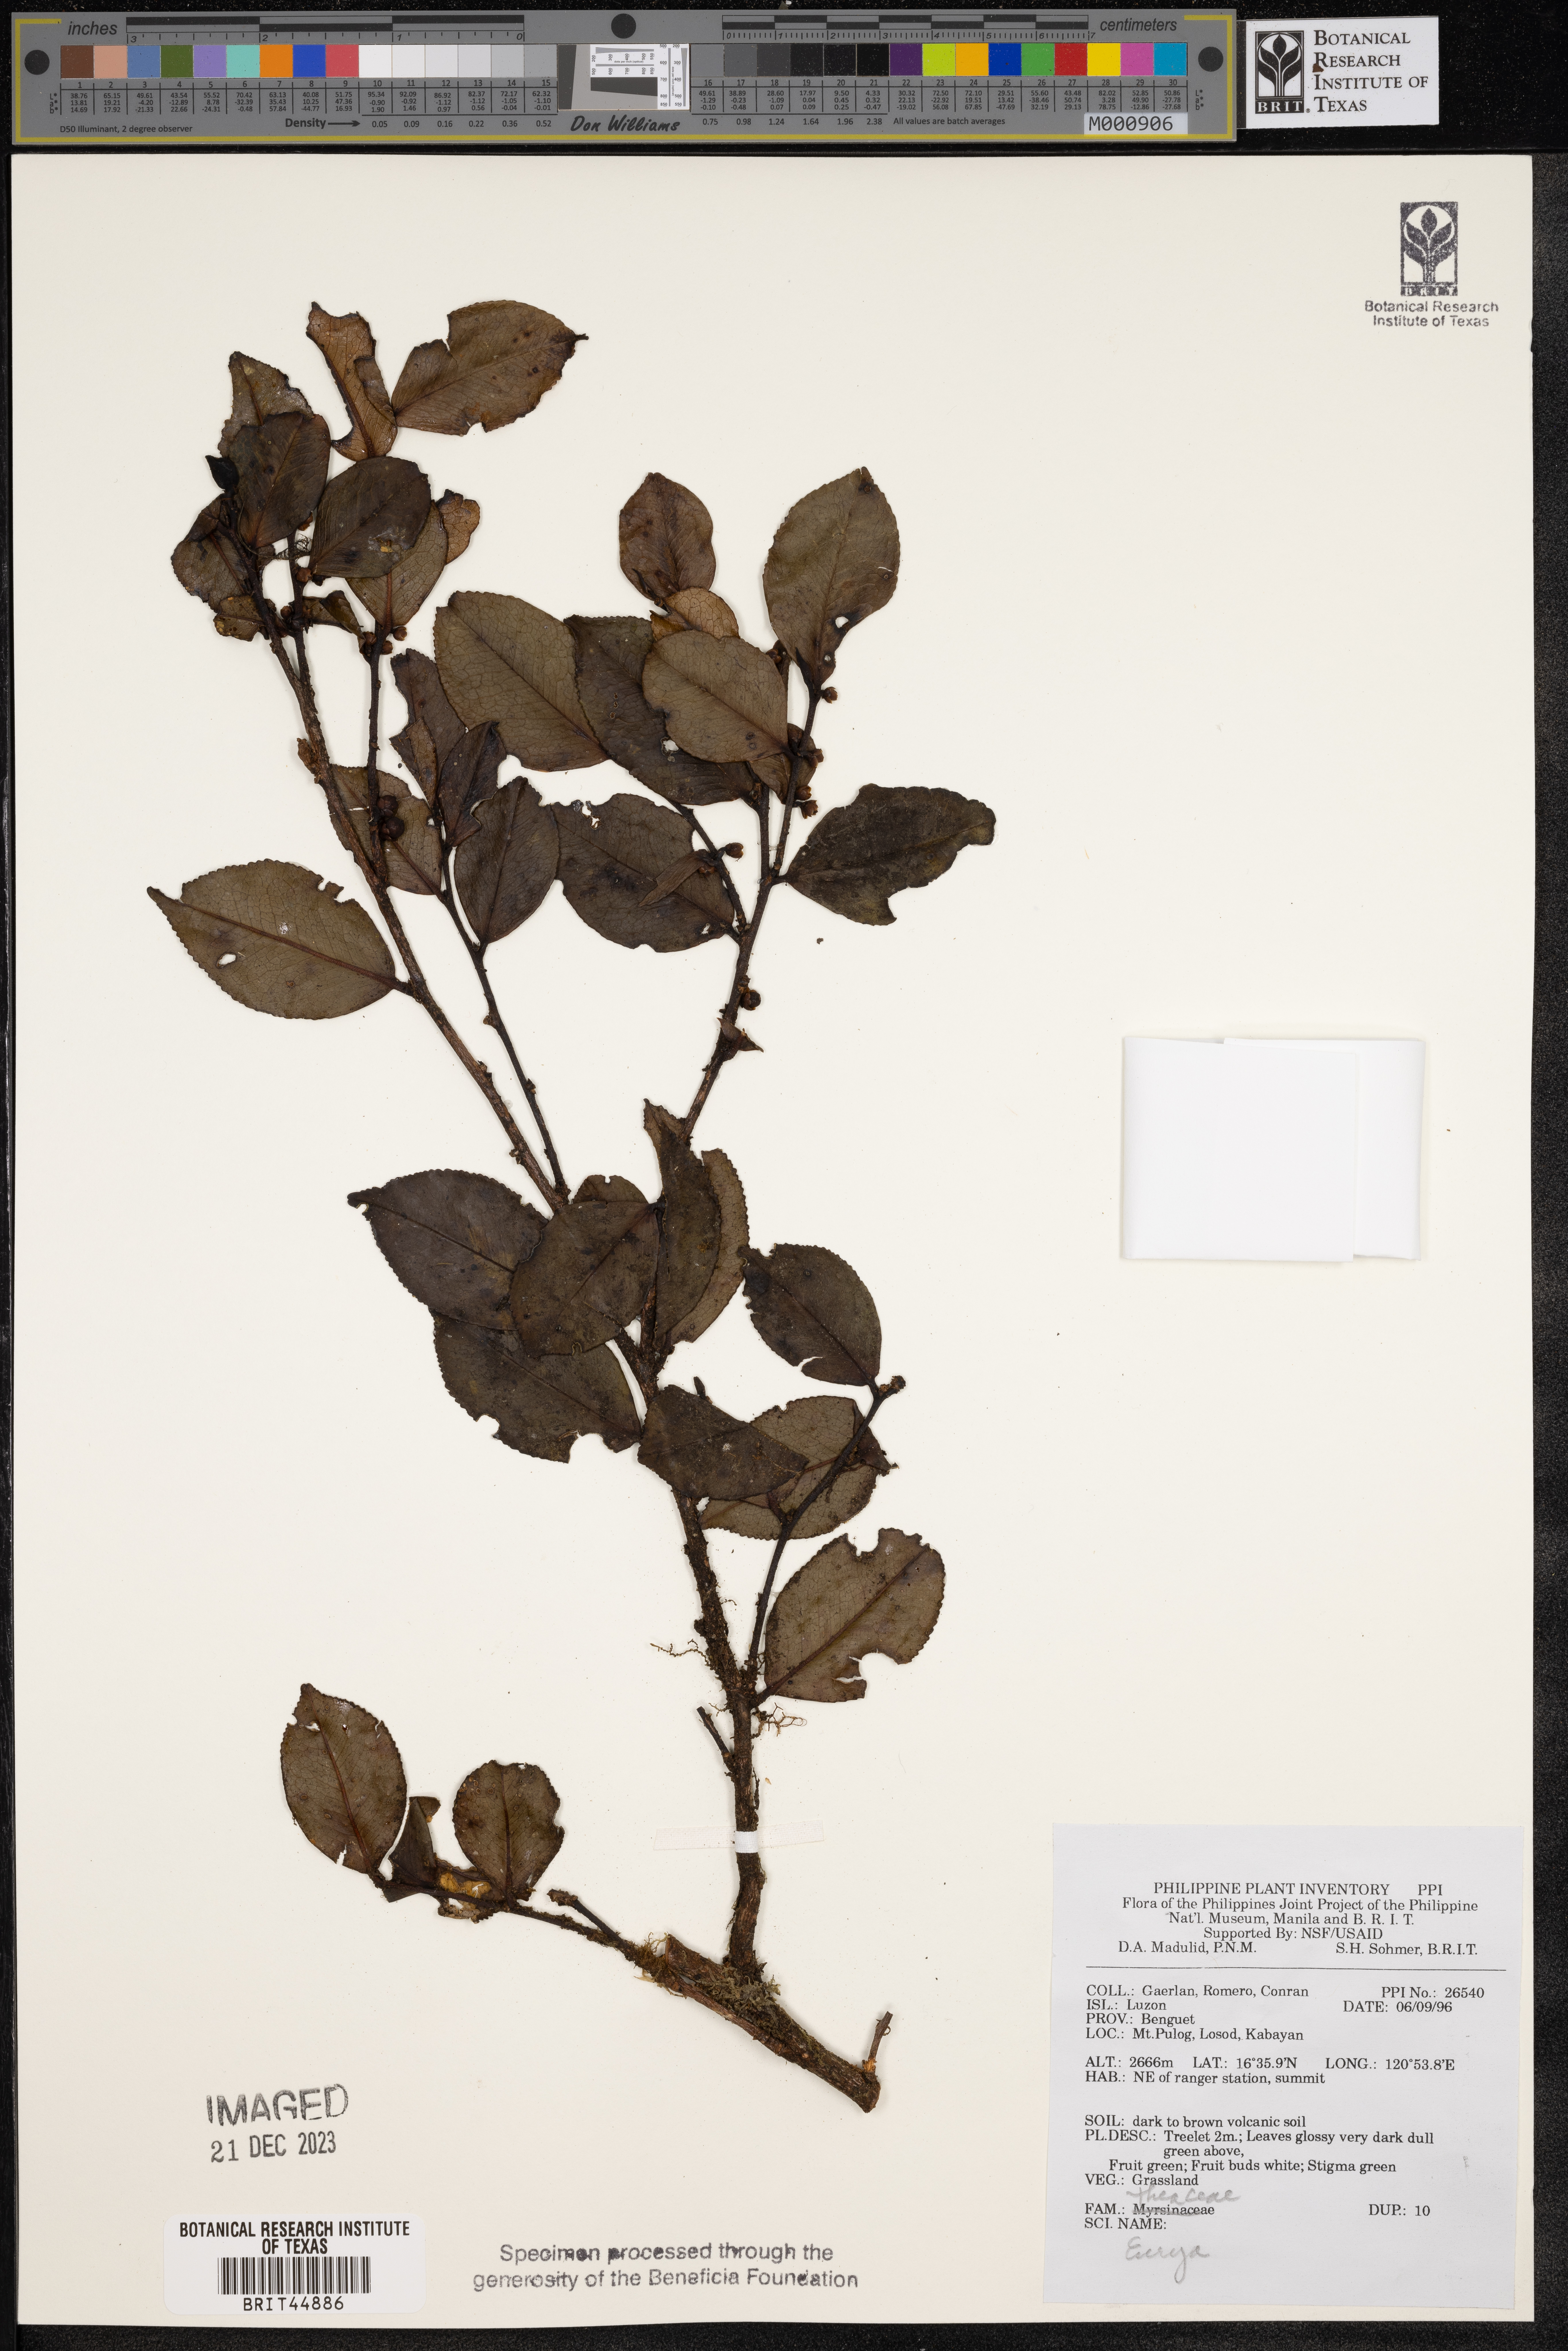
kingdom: Plantae
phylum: Tracheophyta
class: Magnoliopsida
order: Ericales
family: Pentaphylacaceae
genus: Eurya
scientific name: Eurya
